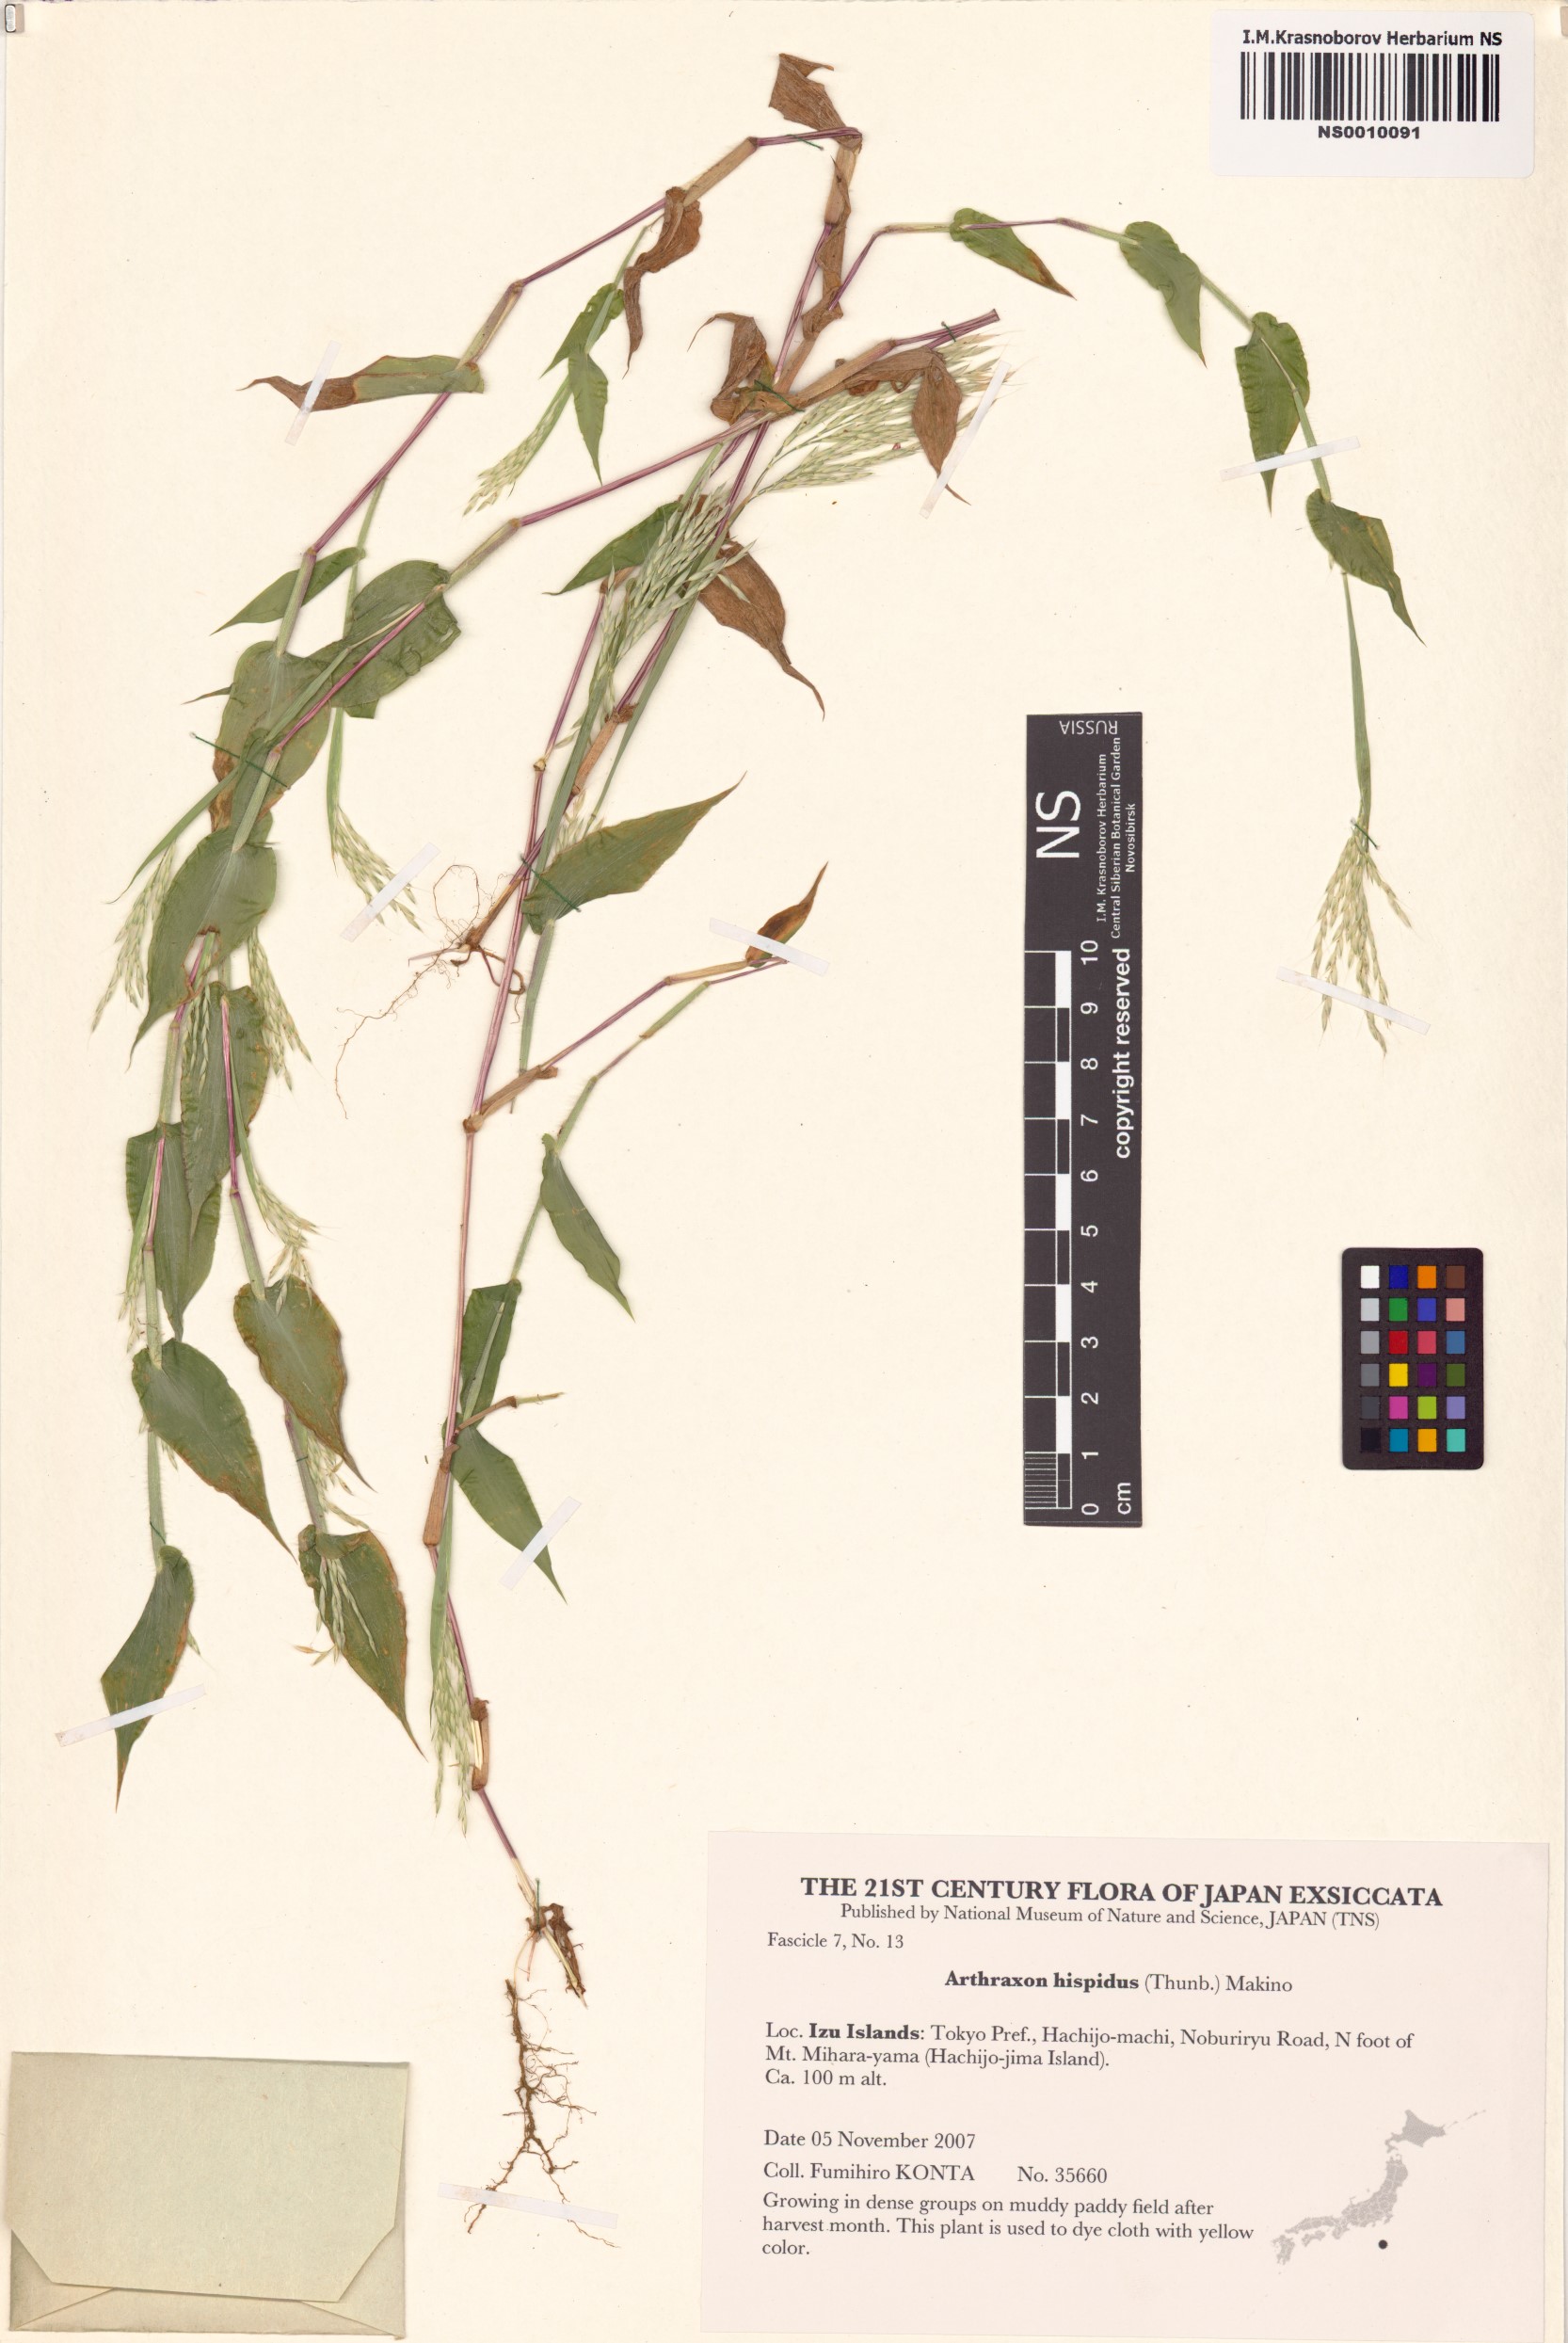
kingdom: Plantae
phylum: Tracheophyta
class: Liliopsida
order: Poales
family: Poaceae
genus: Arthraxon
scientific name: Arthraxon hispidus
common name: Small carpgrass
